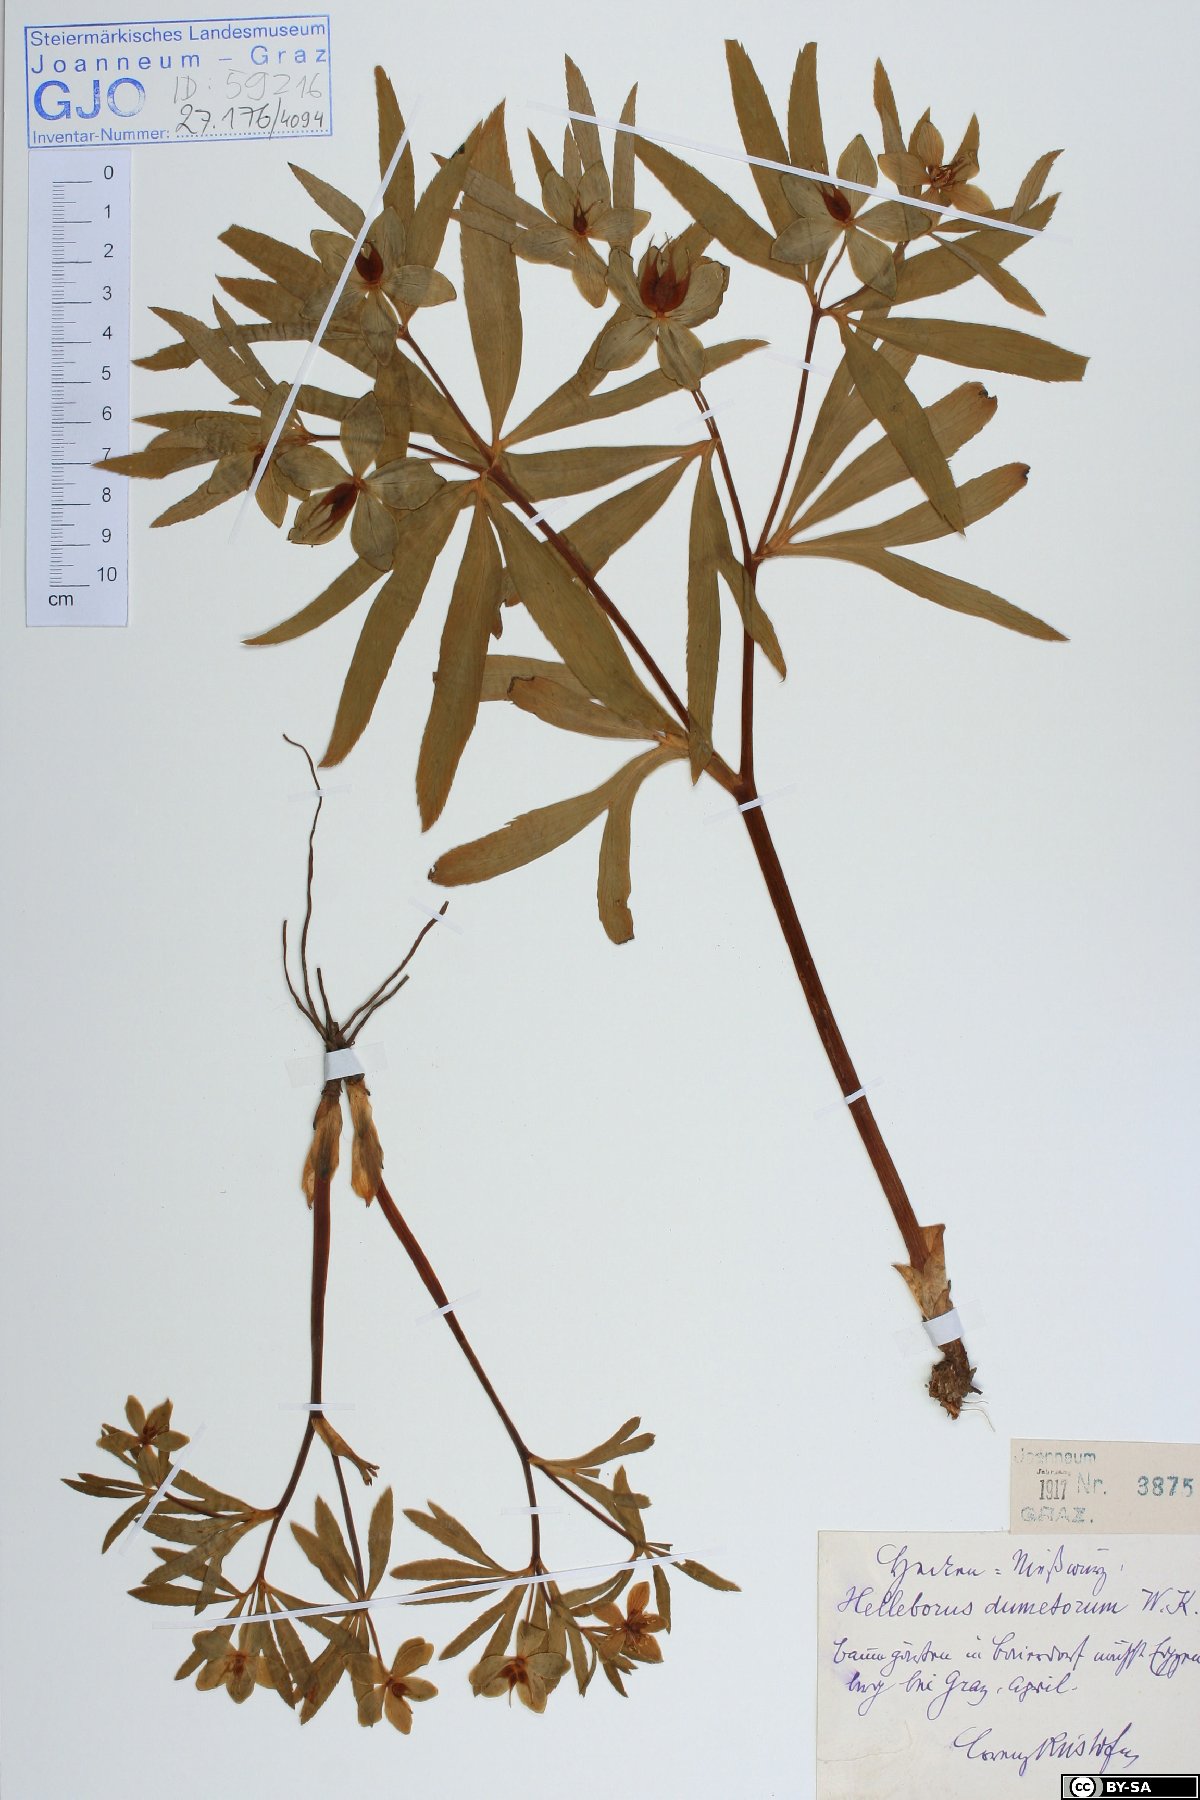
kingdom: Plantae
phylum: Tracheophyta
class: Magnoliopsida
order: Ranunculales
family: Ranunculaceae
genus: Helleborus
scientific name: Helleborus dumetorum
